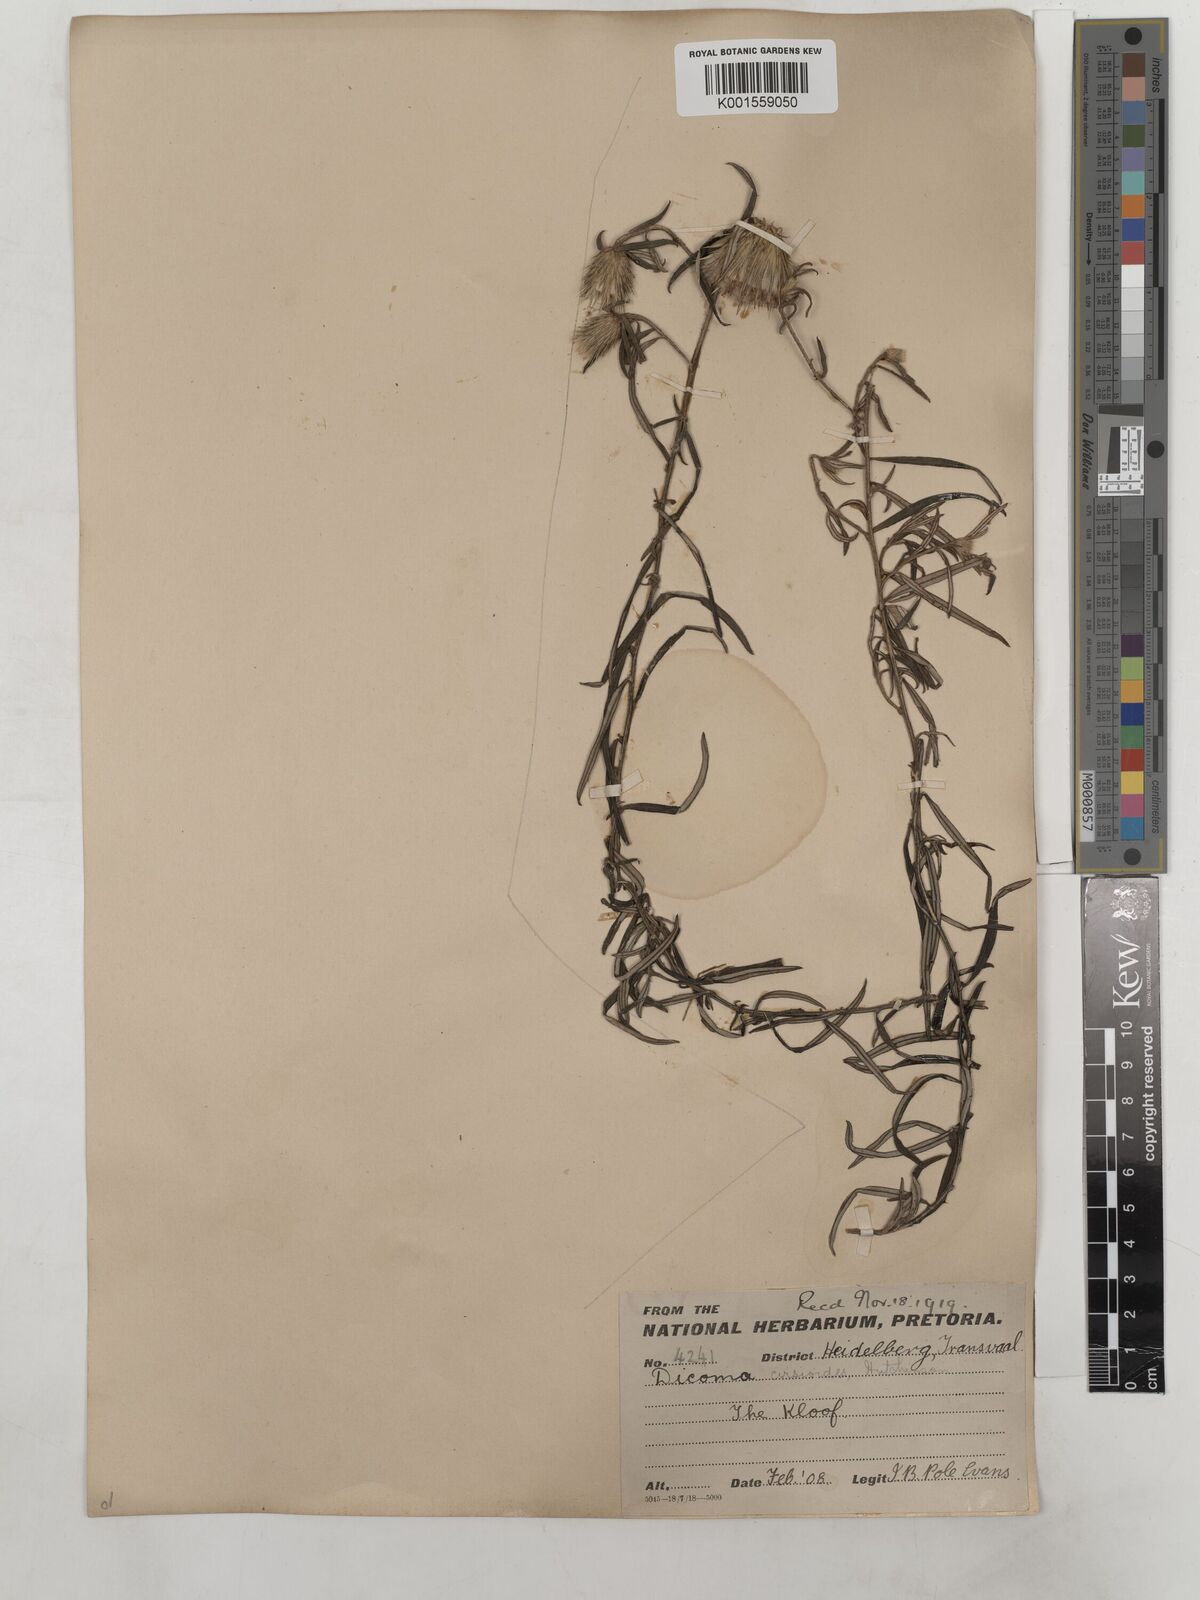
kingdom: Plantae
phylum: Tracheophyta
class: Magnoliopsida
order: Asterales
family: Asteraceae
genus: Dicoma
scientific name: Dicoma anomala
